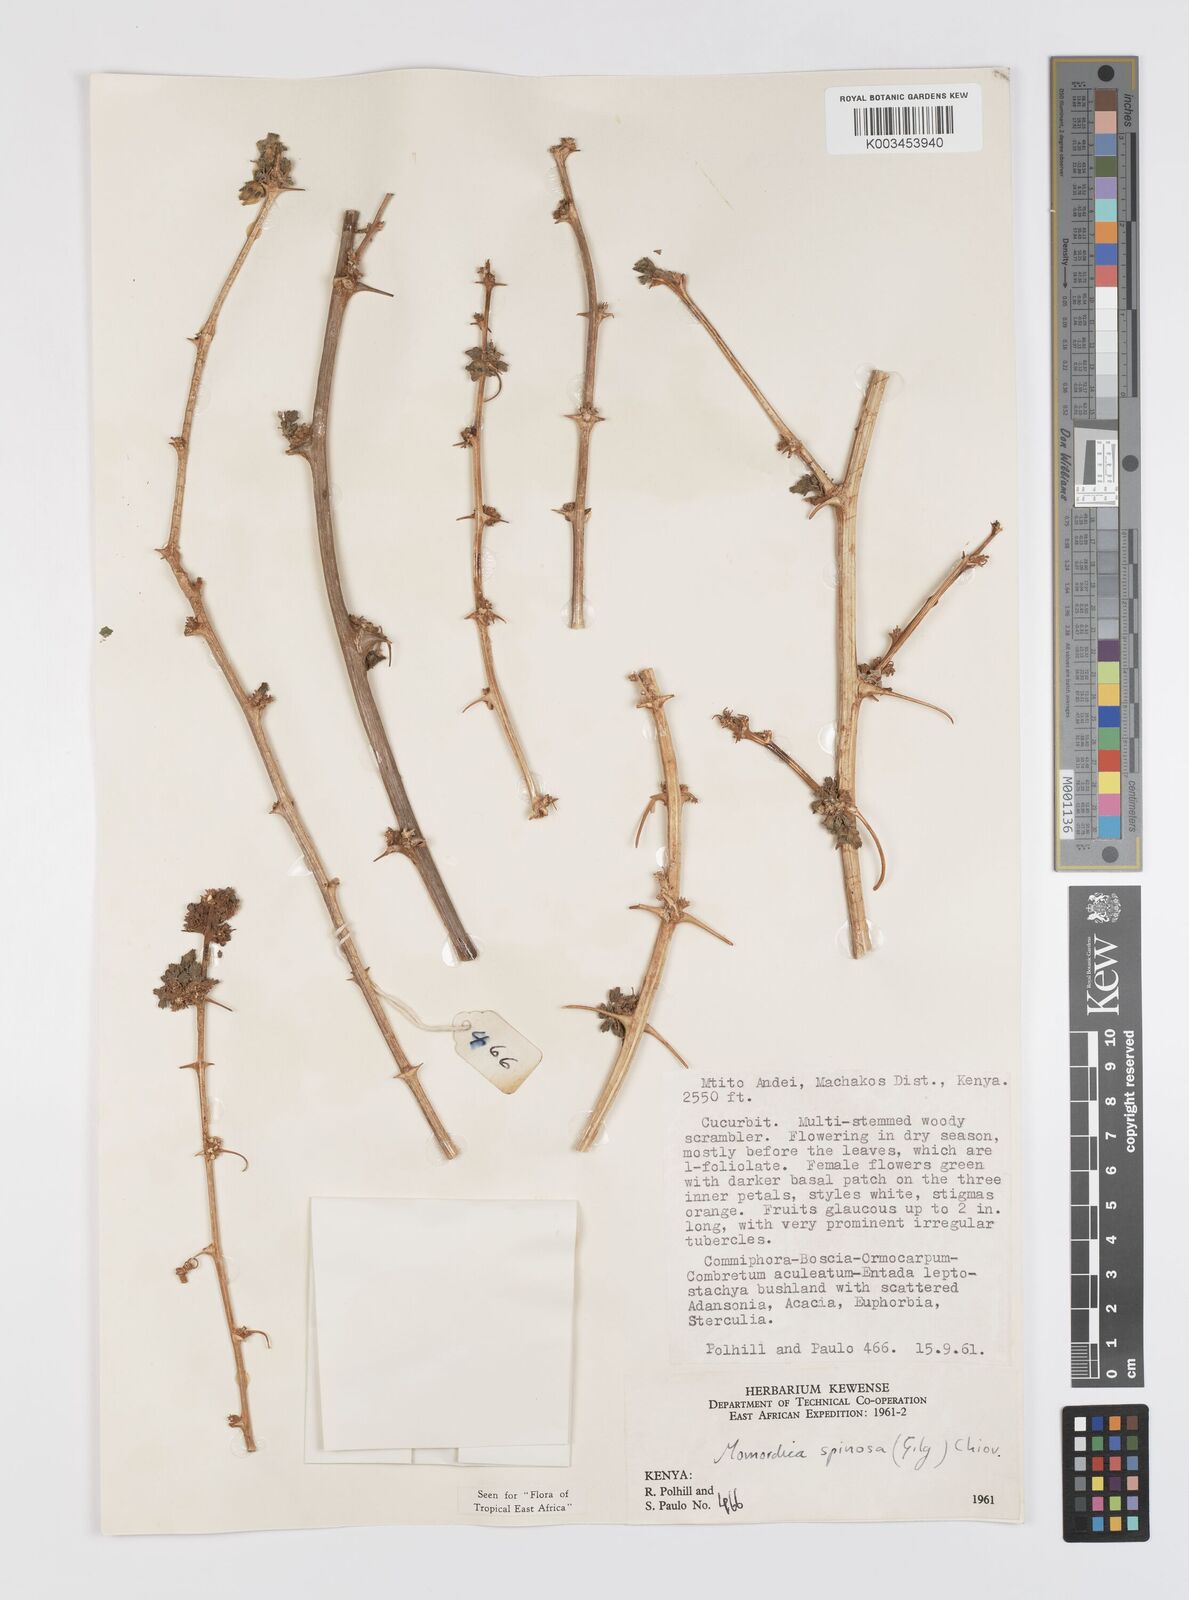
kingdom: Plantae
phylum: Tracheophyta
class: Magnoliopsida
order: Cucurbitales
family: Cucurbitaceae
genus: Momordica
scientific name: Momordica spinosa
